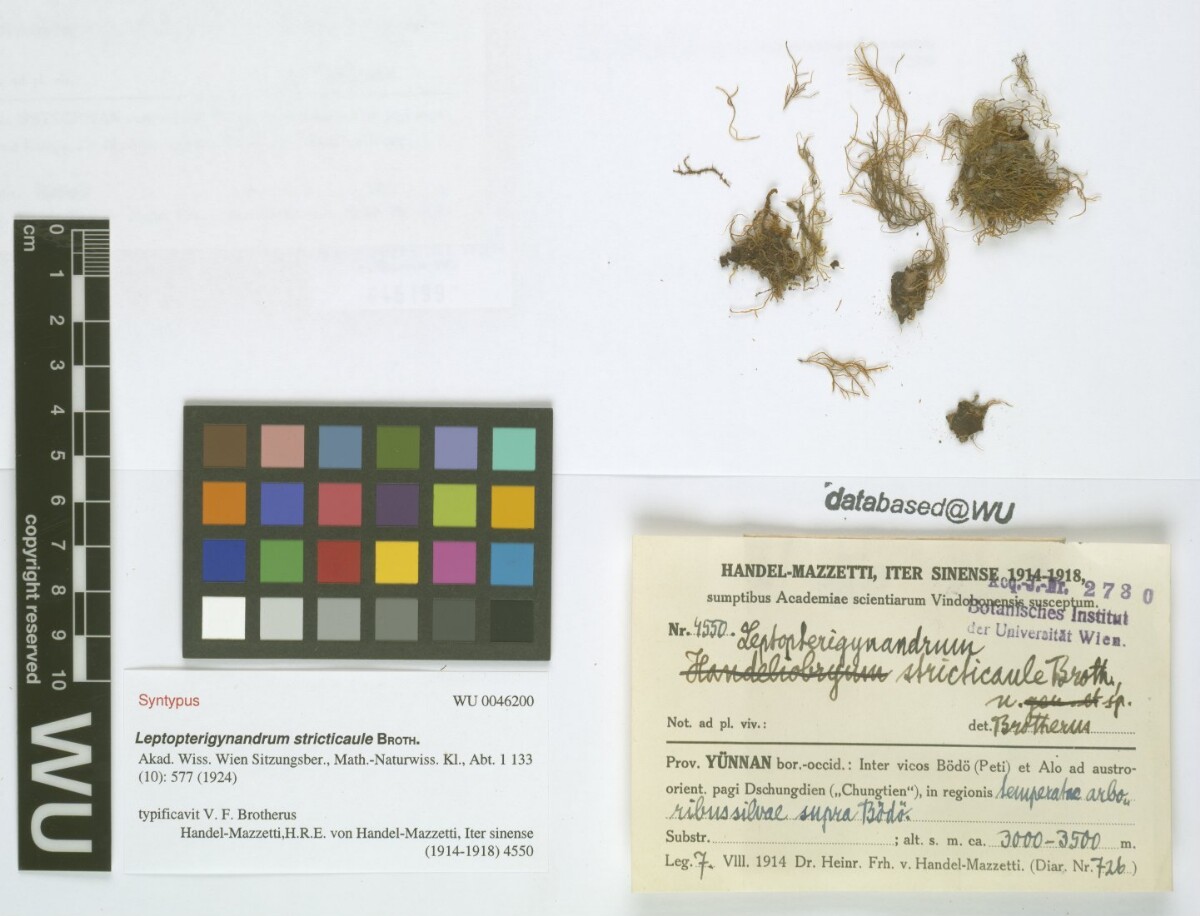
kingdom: Plantae
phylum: Bryophyta
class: Bryopsida
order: Hypnales
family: Taxiphyllaceae
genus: Leptopterigynandrum
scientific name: Leptopterigynandrum stricticaule
